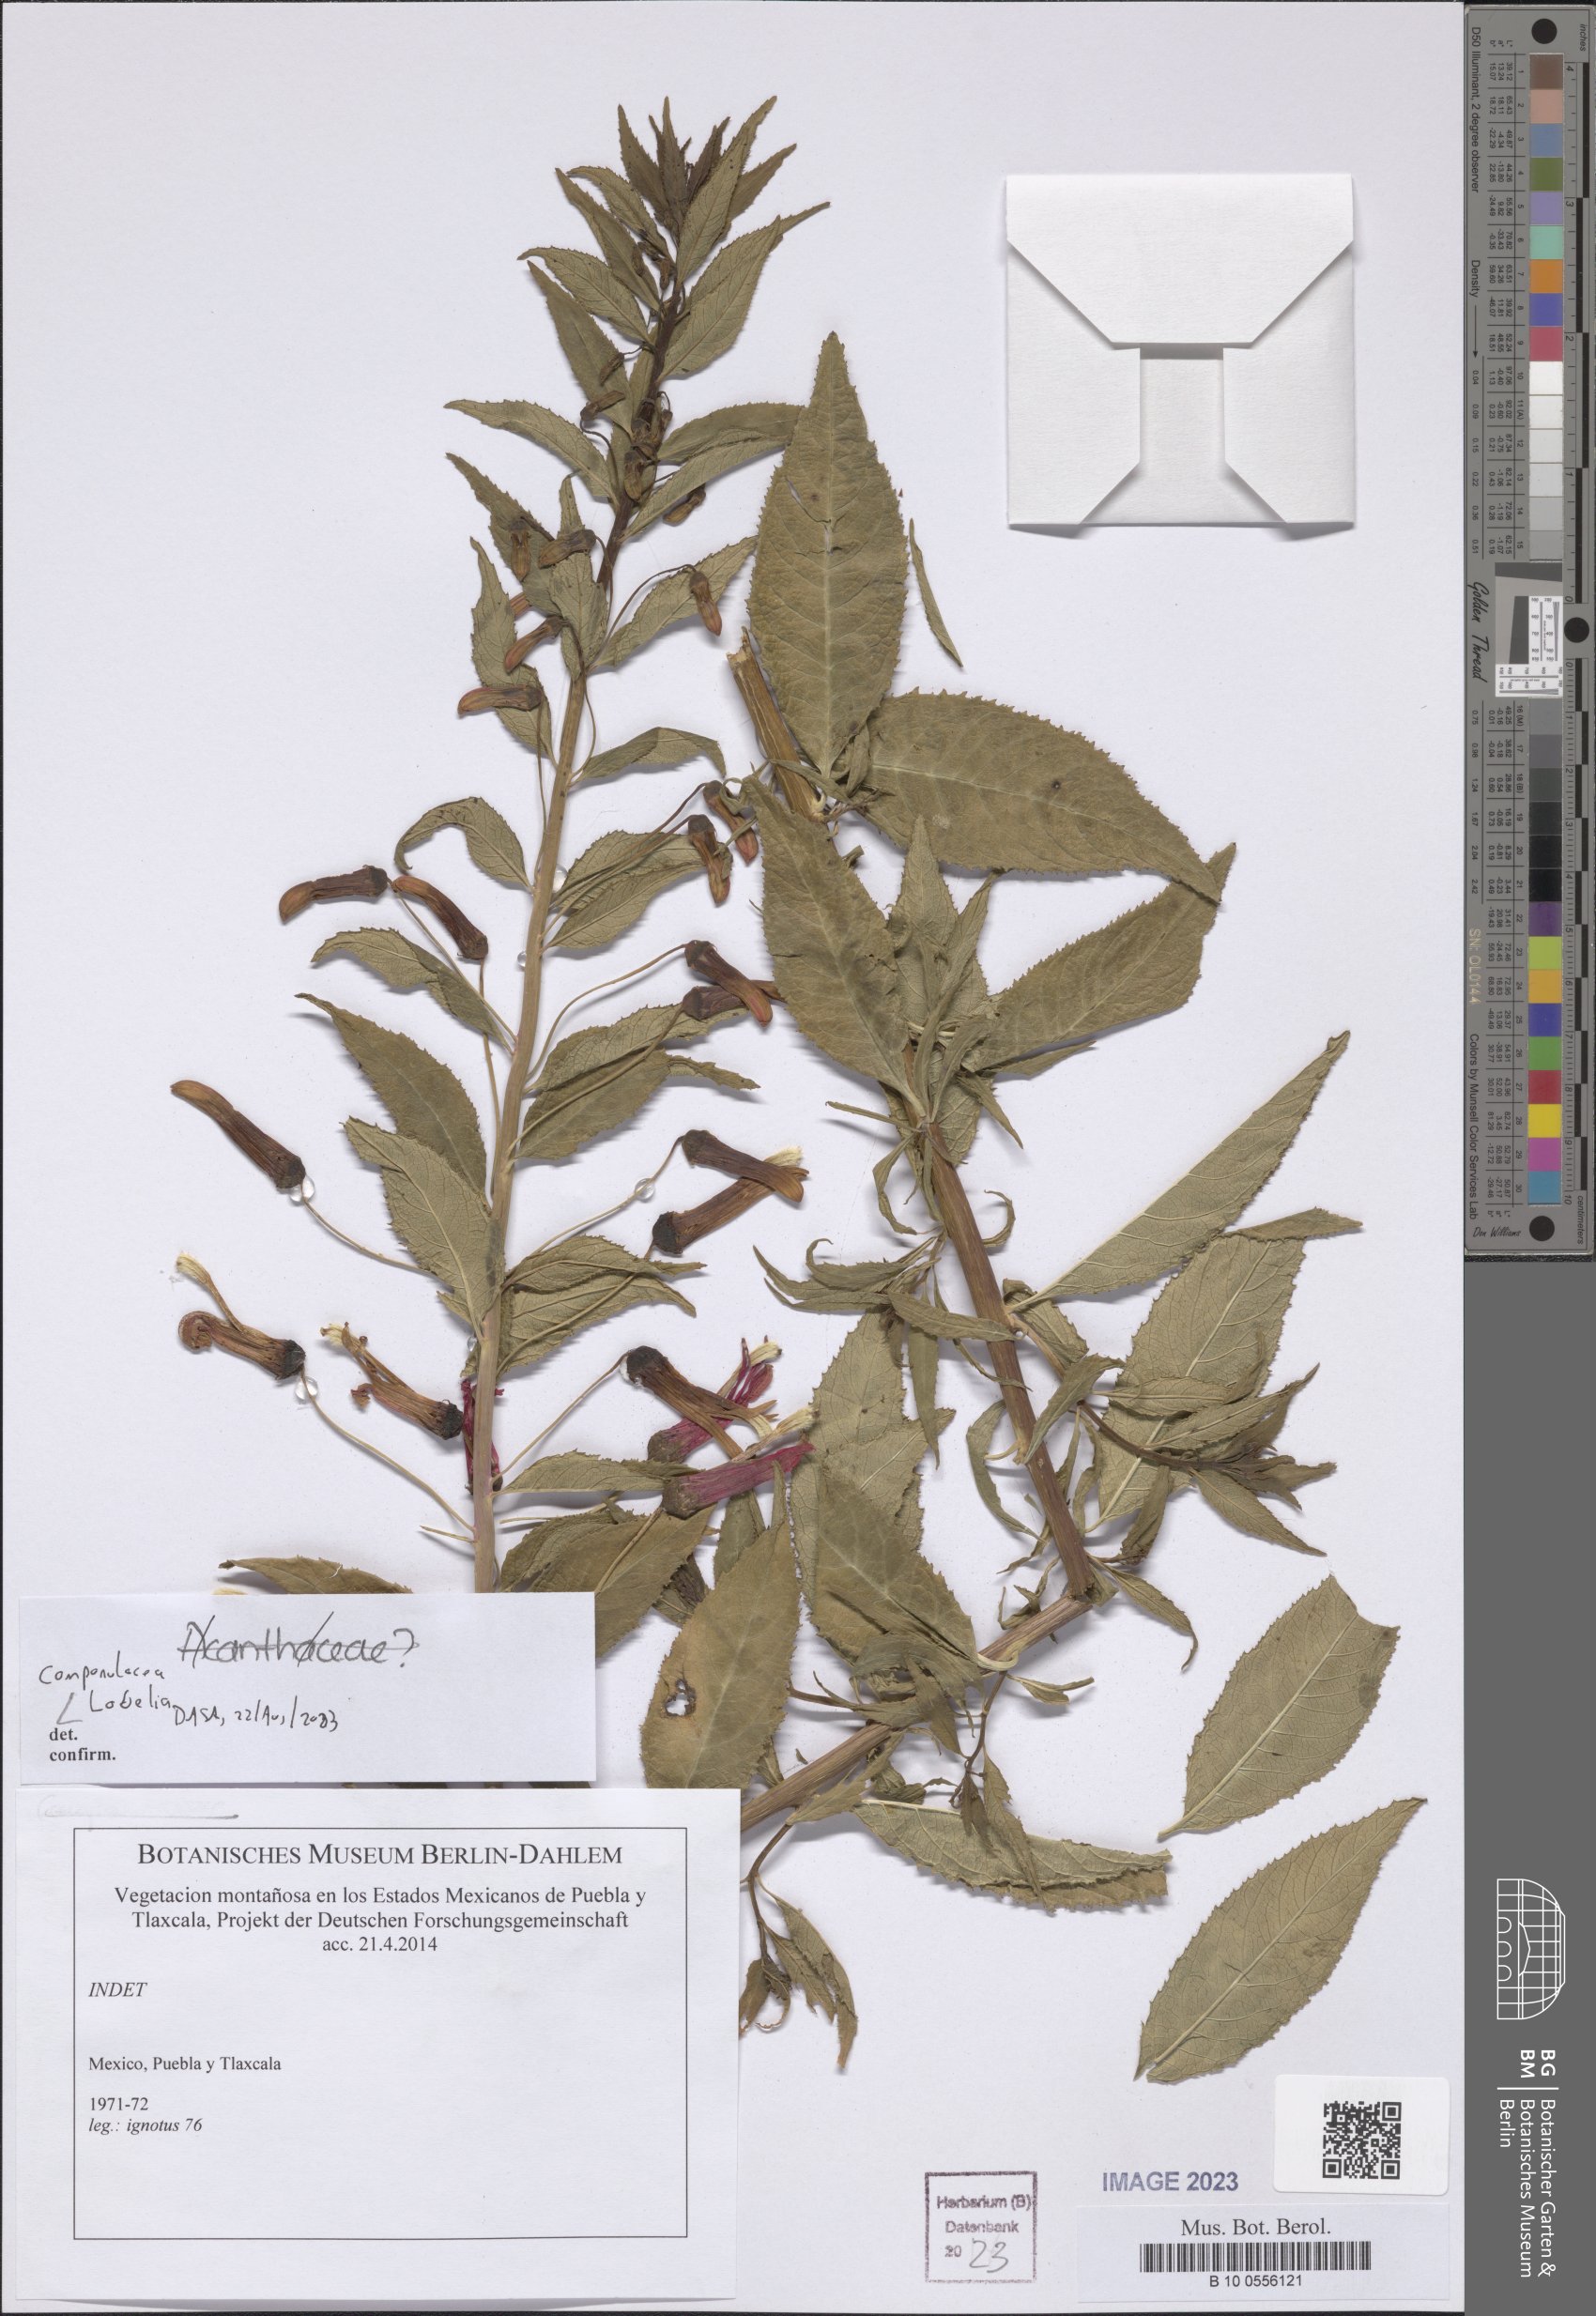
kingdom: Plantae
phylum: Tracheophyta
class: Magnoliopsida
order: Asterales
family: Campanulaceae
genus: Lobelia
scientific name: Lobelia
